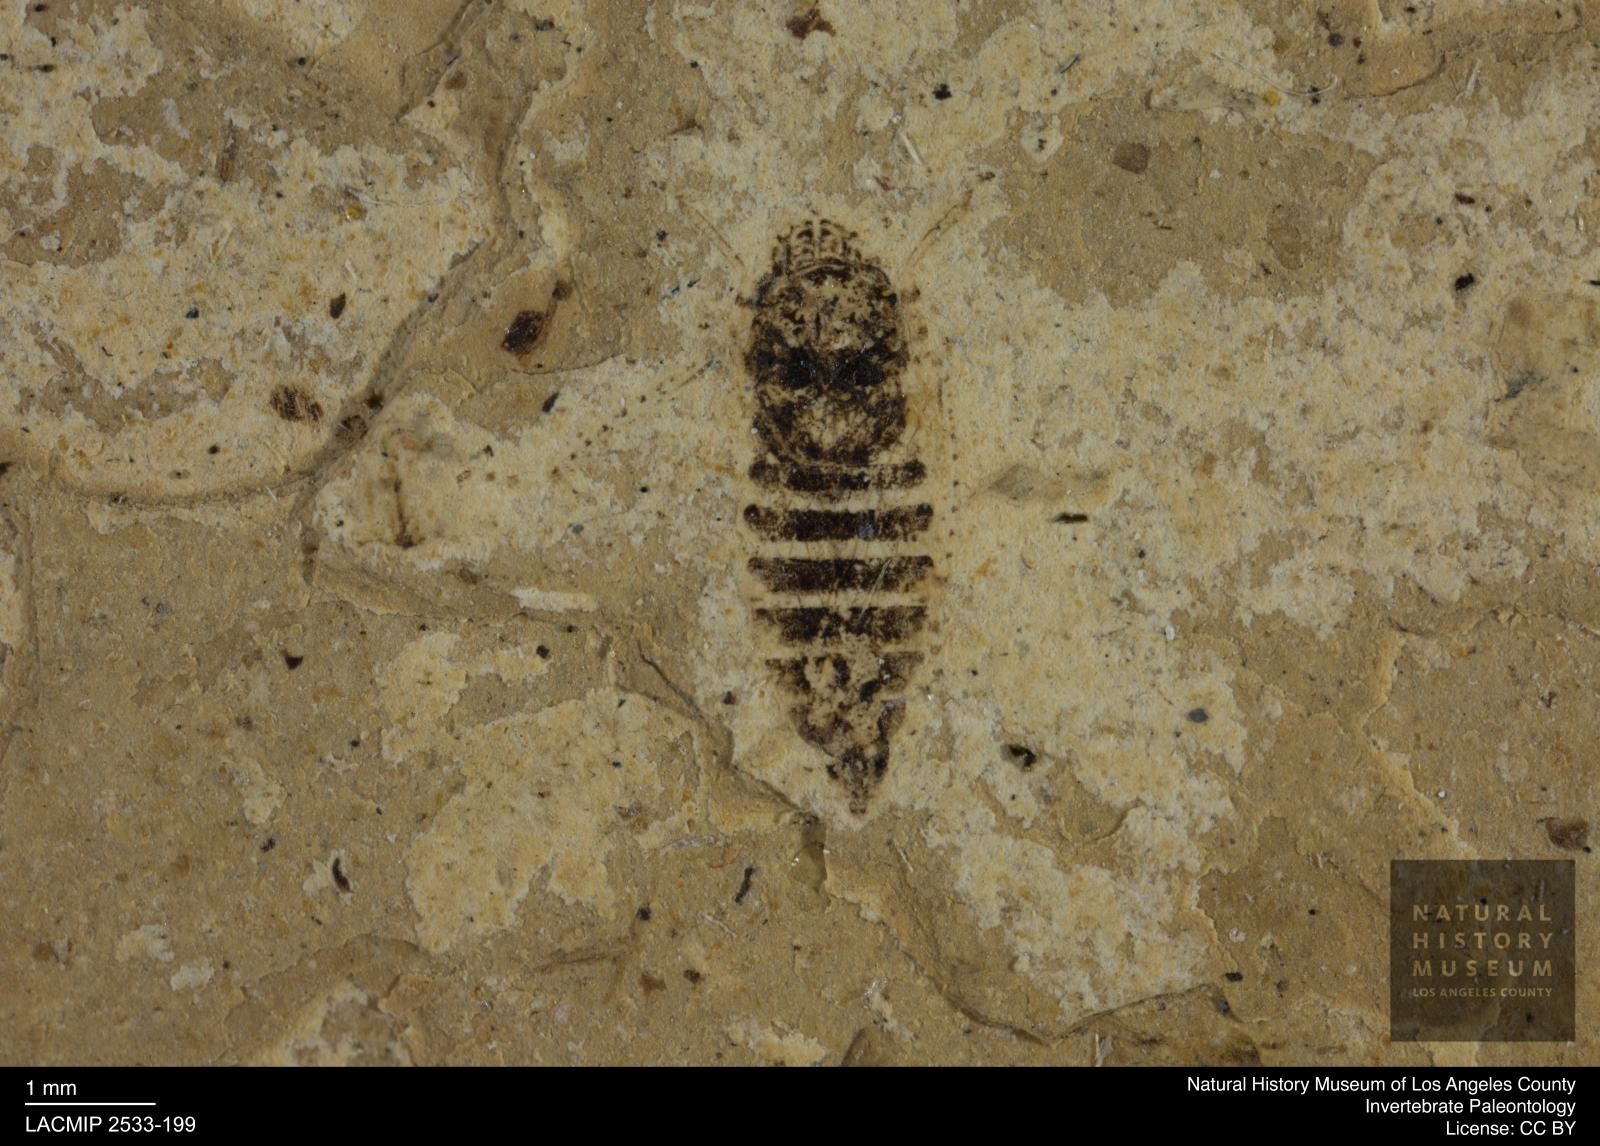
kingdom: Animalia
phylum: Arthropoda
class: Insecta
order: Hemiptera
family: Cicadellidae
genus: Thamnotettix
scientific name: Thamnotettix gracilentus
